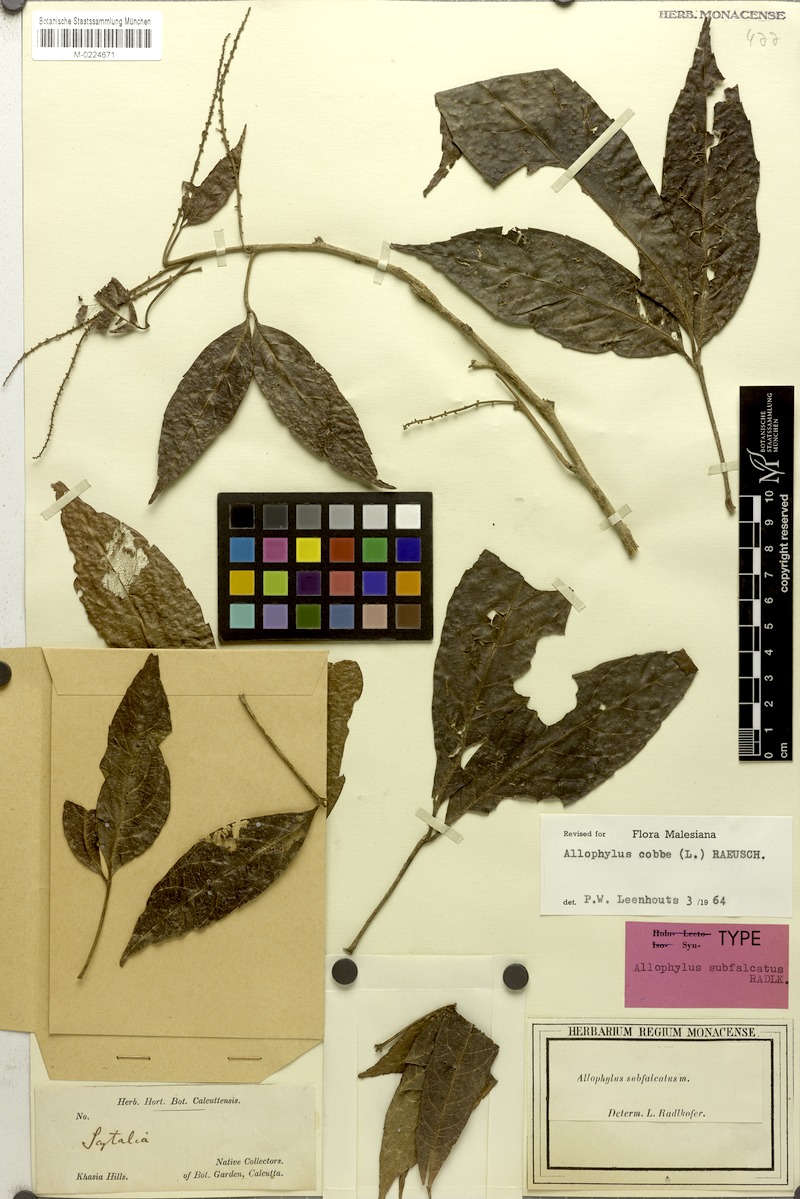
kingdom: Plantae
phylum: Tracheophyta
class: Magnoliopsida
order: Sapindales
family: Sapindaceae
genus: Allophylus
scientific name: Allophylus subfalcatus
